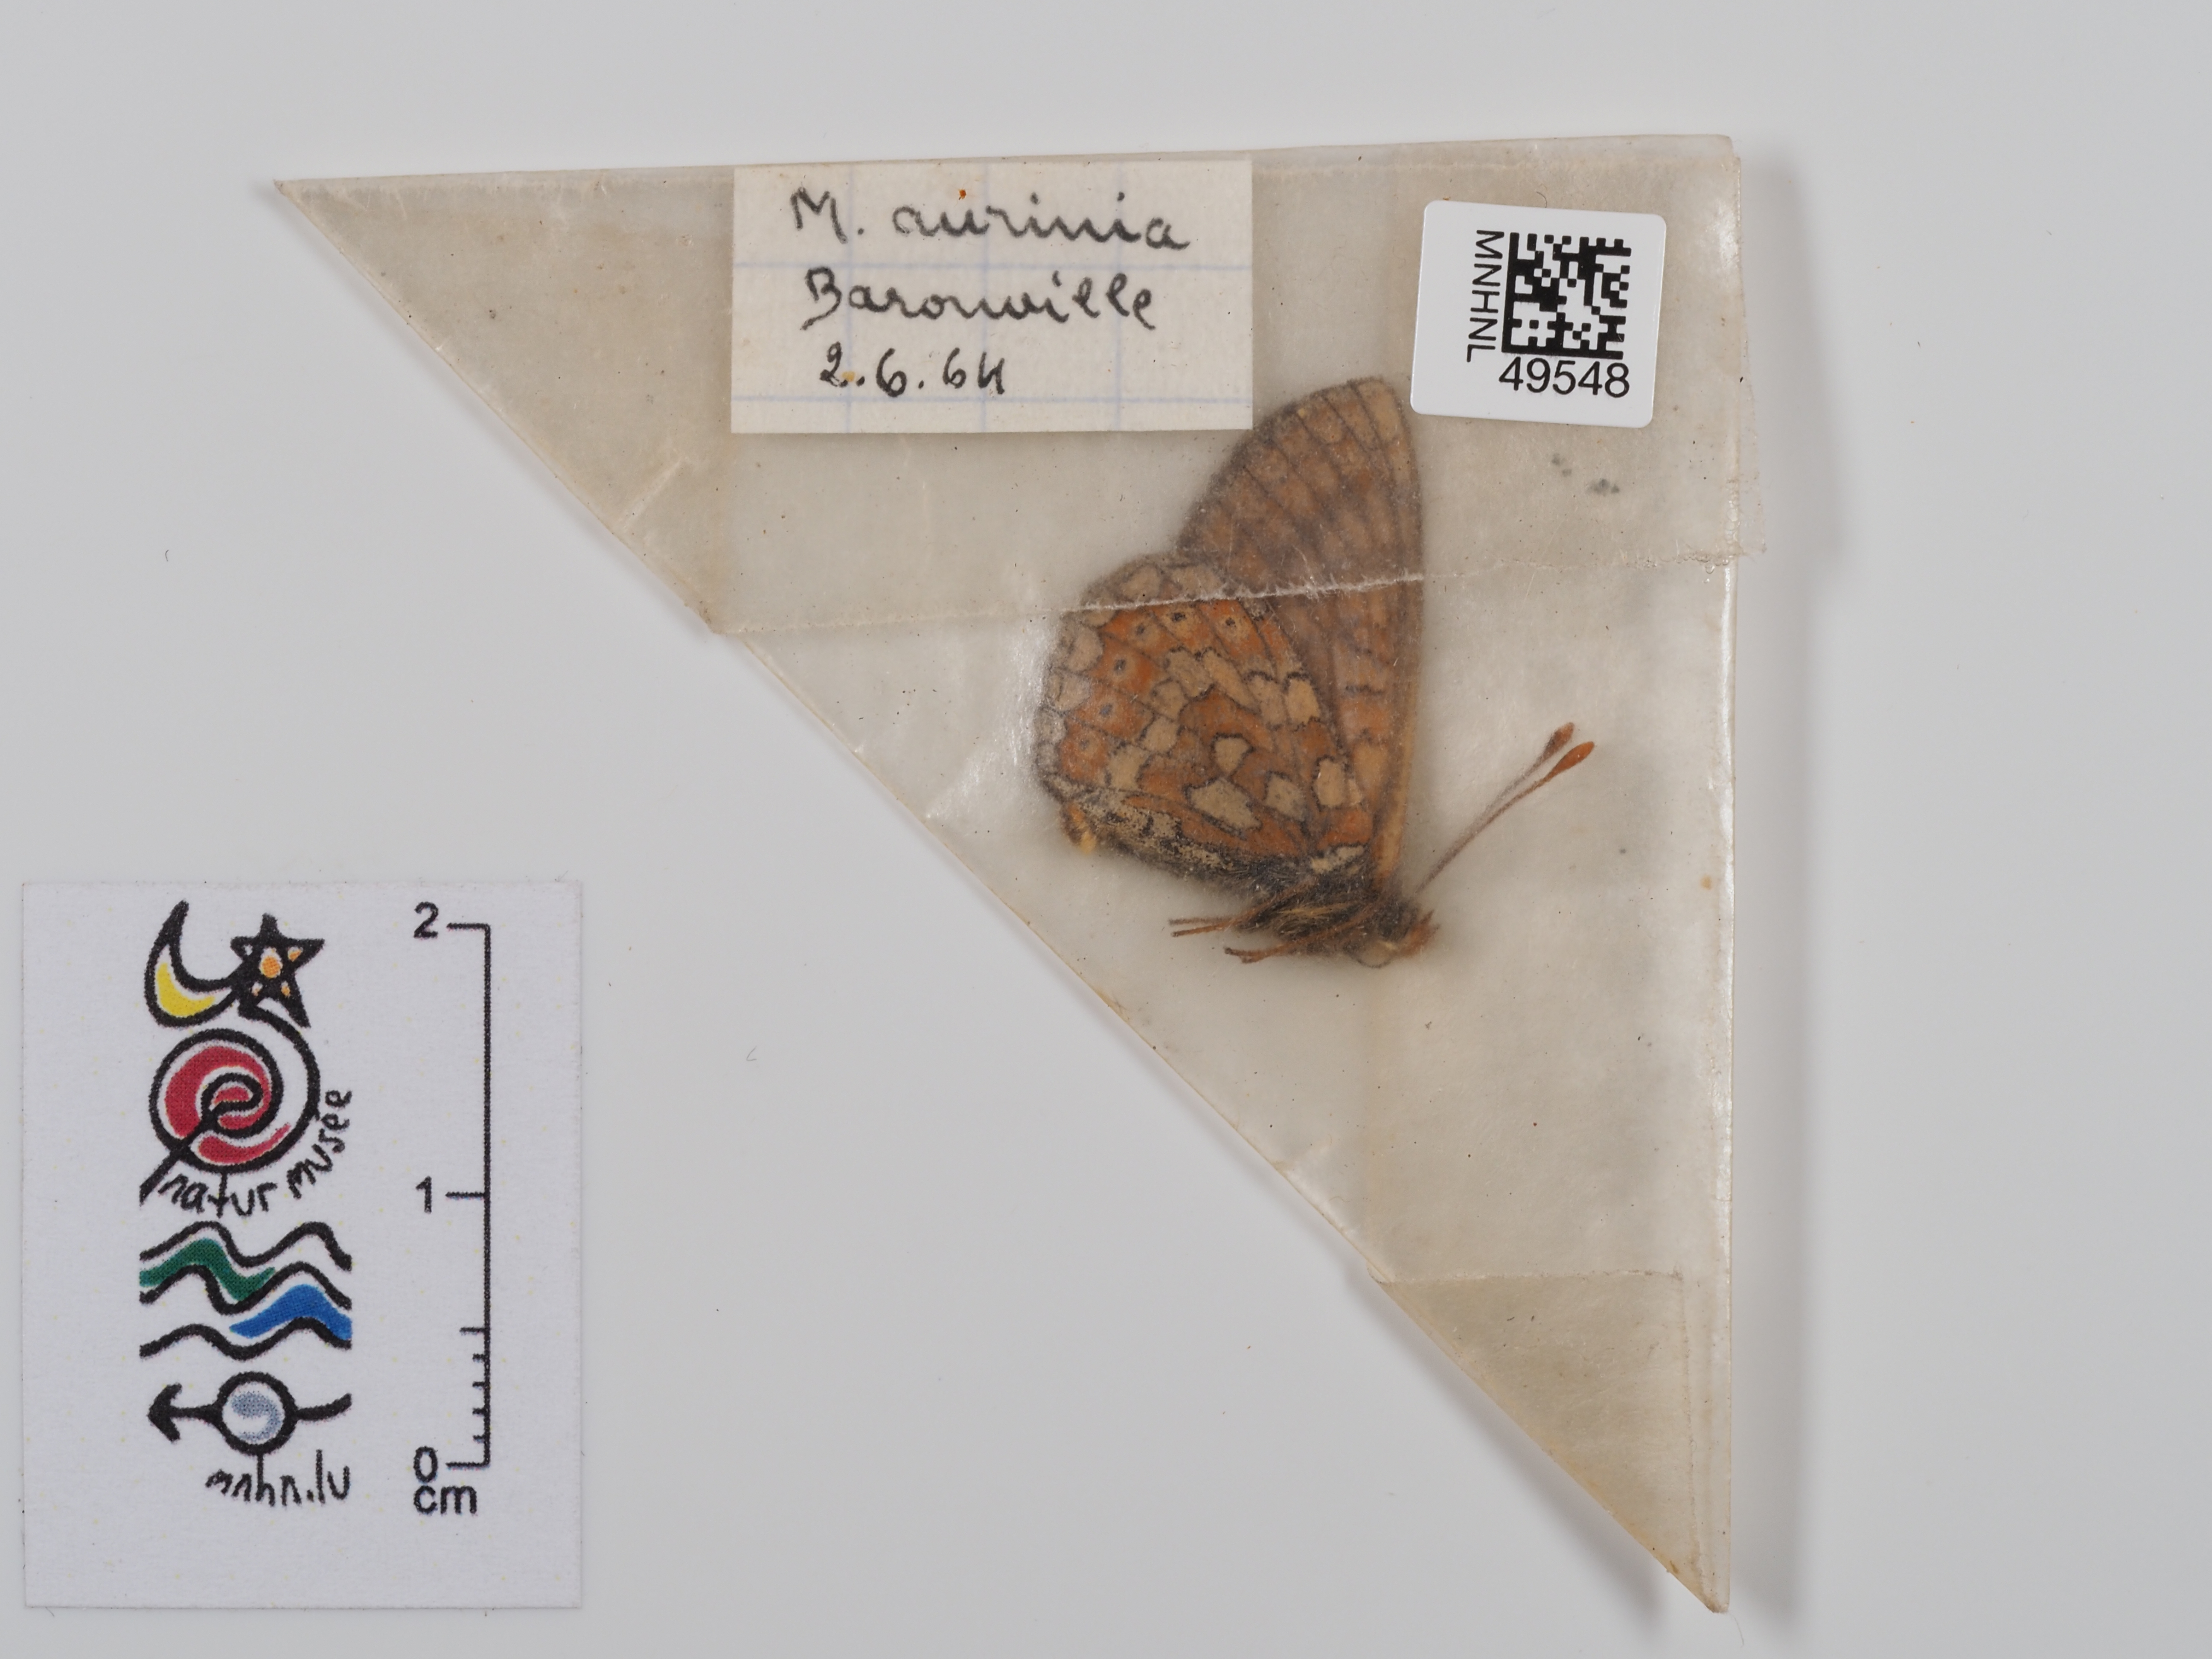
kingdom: Animalia
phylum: Arthropoda
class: Insecta
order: Lepidoptera
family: Nymphalidae
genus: Eurodryas
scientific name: Eurodryas aurinia
